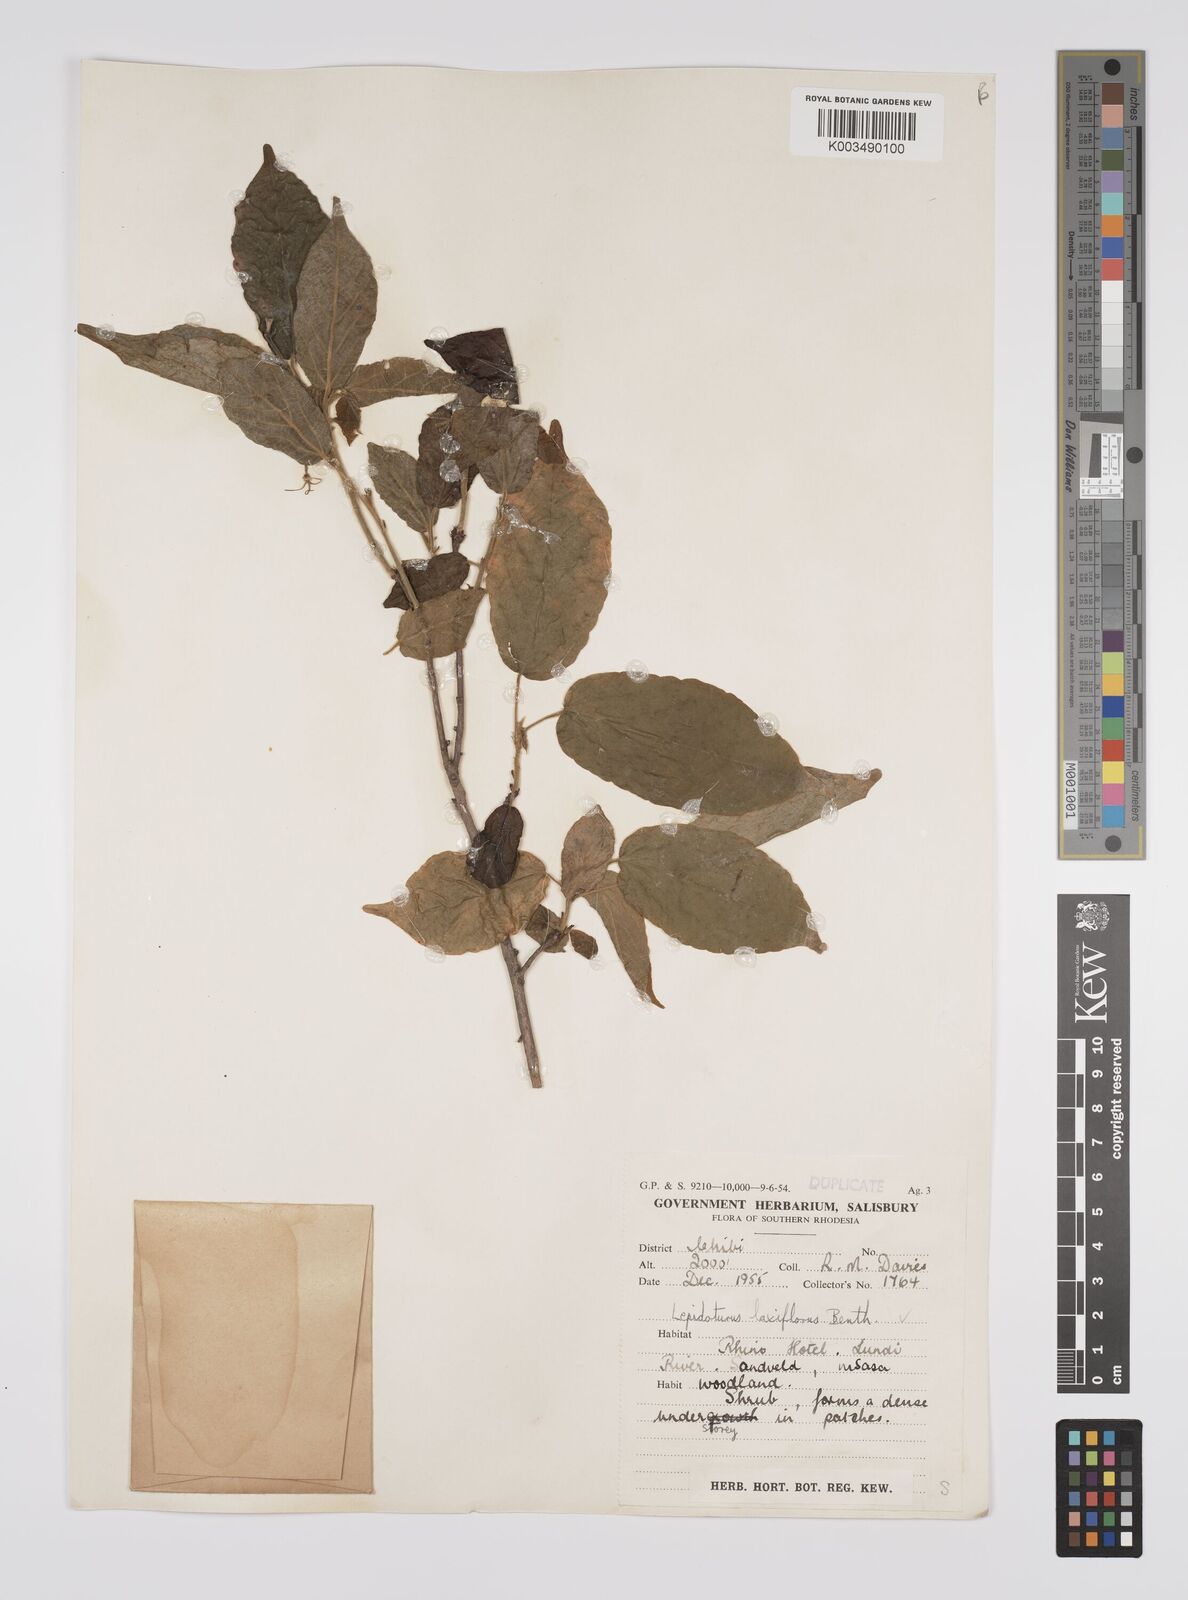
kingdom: Plantae
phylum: Tracheophyta
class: Magnoliopsida
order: Malpighiales
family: Euphorbiaceae
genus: Alchornea
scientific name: Alchornea laxiflora
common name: Lowveld bead-string
